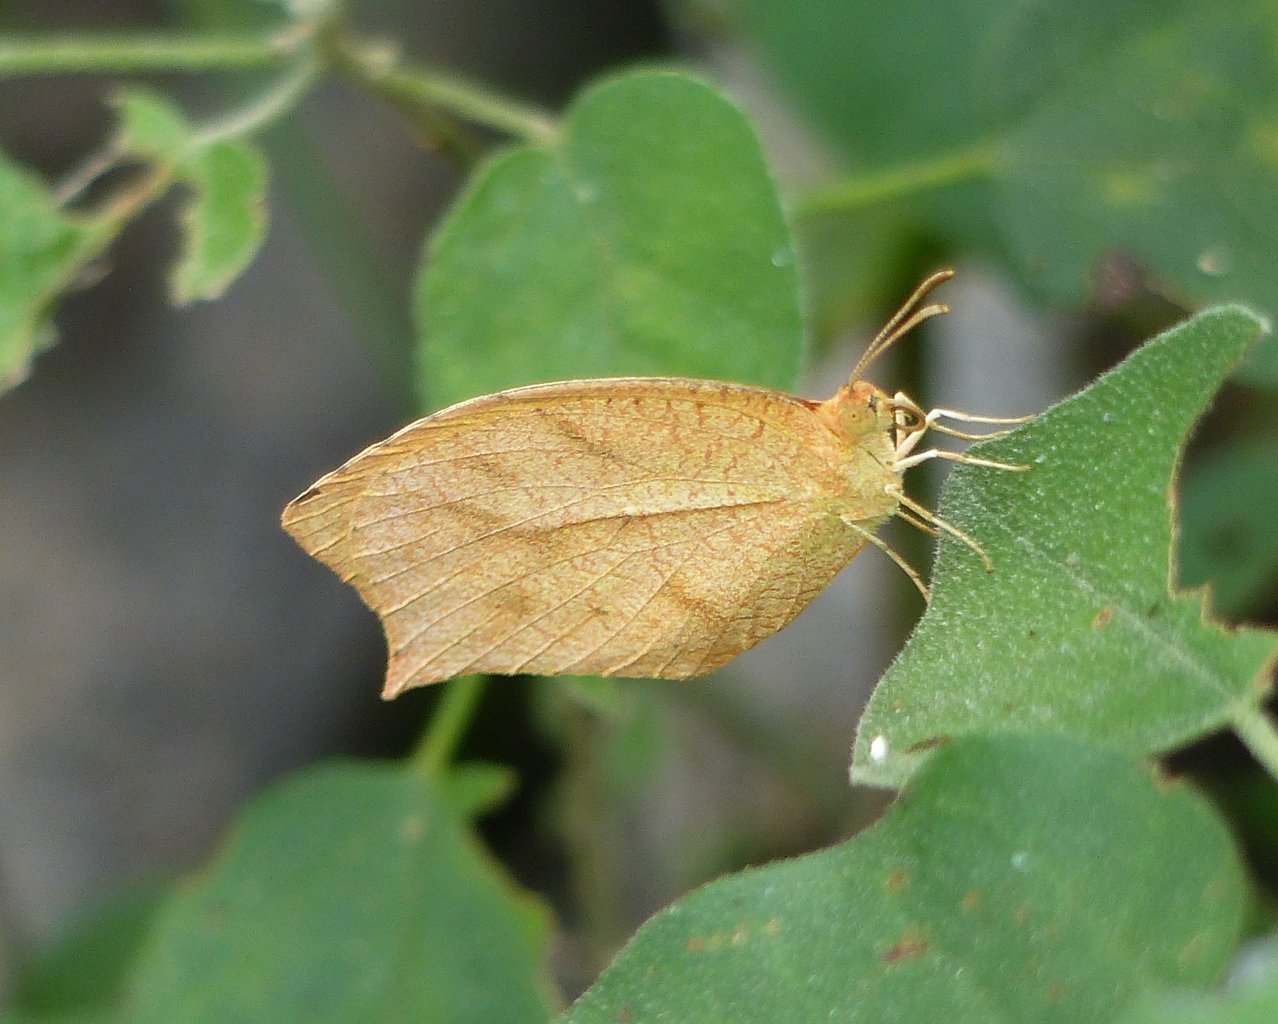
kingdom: Animalia
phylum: Arthropoda
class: Insecta
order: Lepidoptera
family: Pieridae
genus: Pyrisitia
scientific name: Pyrisitia proterpia
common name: Tailed Orange
